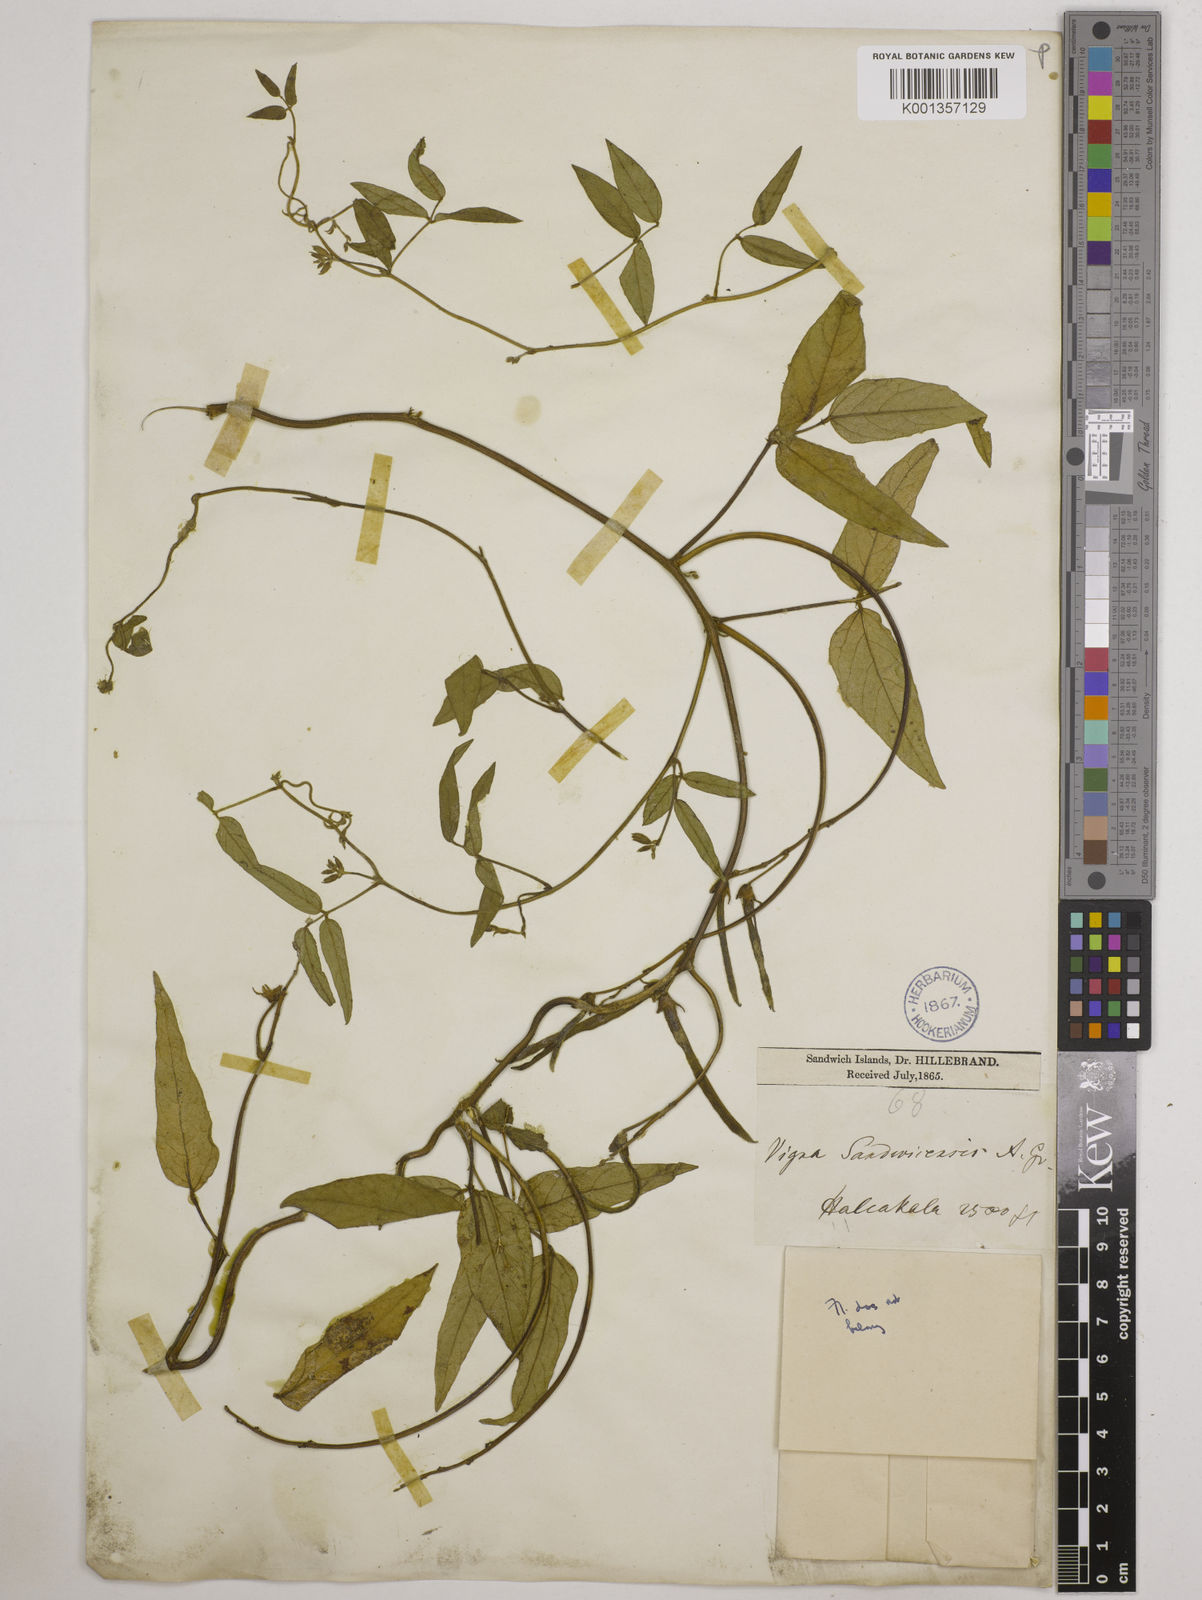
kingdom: Plantae
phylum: Tracheophyta
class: Magnoliopsida
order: Fabales
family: Fabaceae
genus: Vigna
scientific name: Vigna
